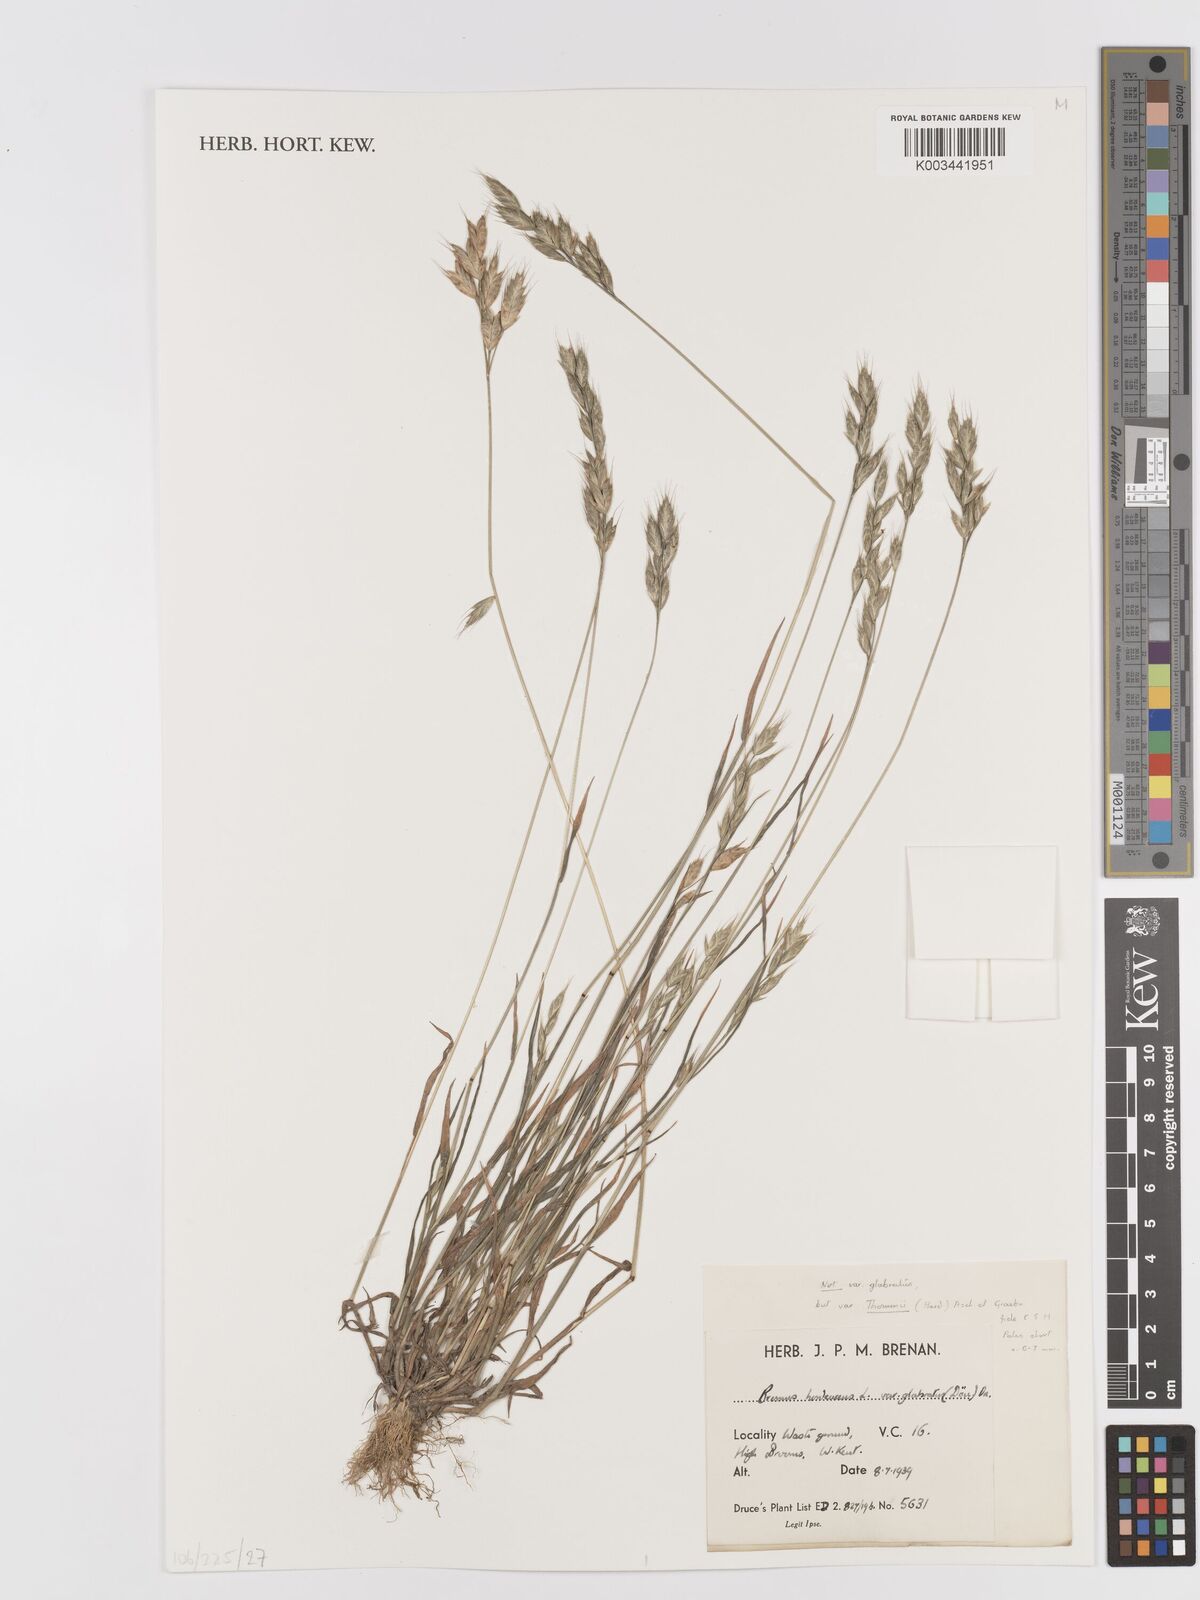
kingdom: Plantae
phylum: Tracheophyta
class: Liliopsida
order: Poales
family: Poaceae
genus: Bromus
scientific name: Bromus hordeaceus
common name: Soft brome
